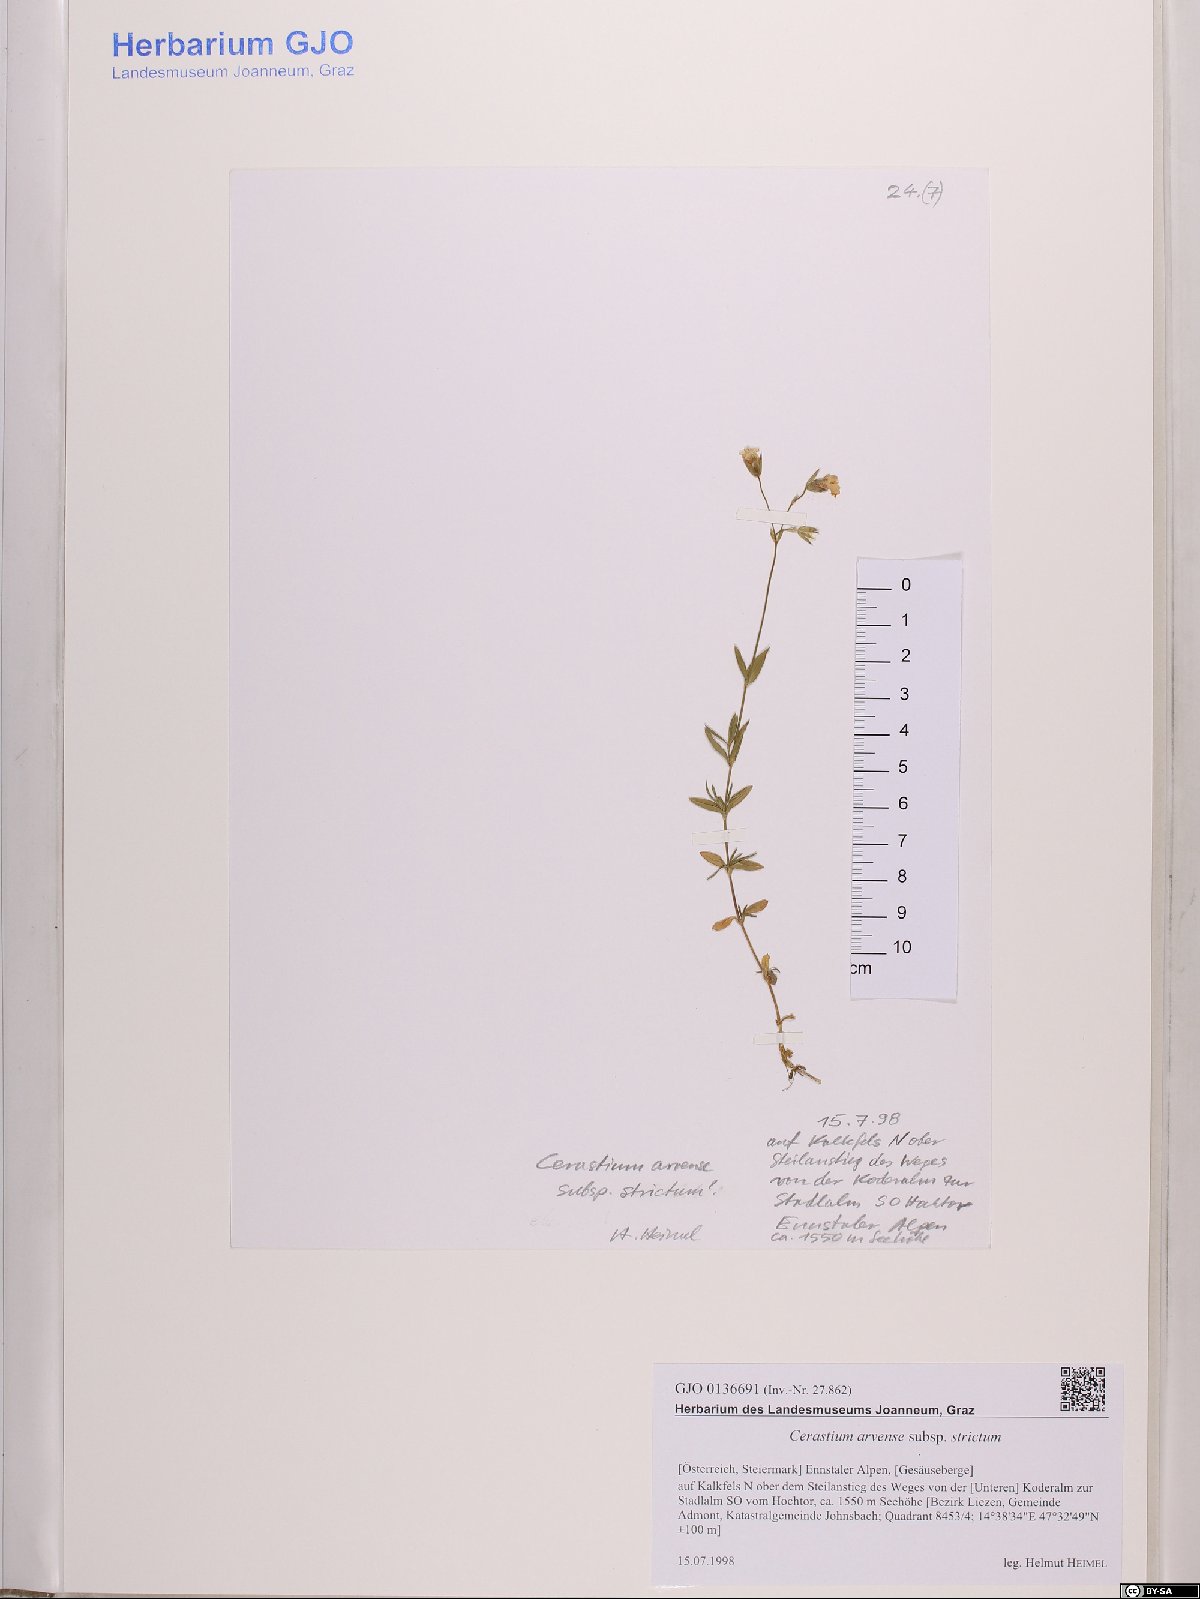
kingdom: Plantae
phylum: Tracheophyta
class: Magnoliopsida
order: Caryophyllales
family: Caryophyllaceae
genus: Cerastium
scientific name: Cerastium elongatum
